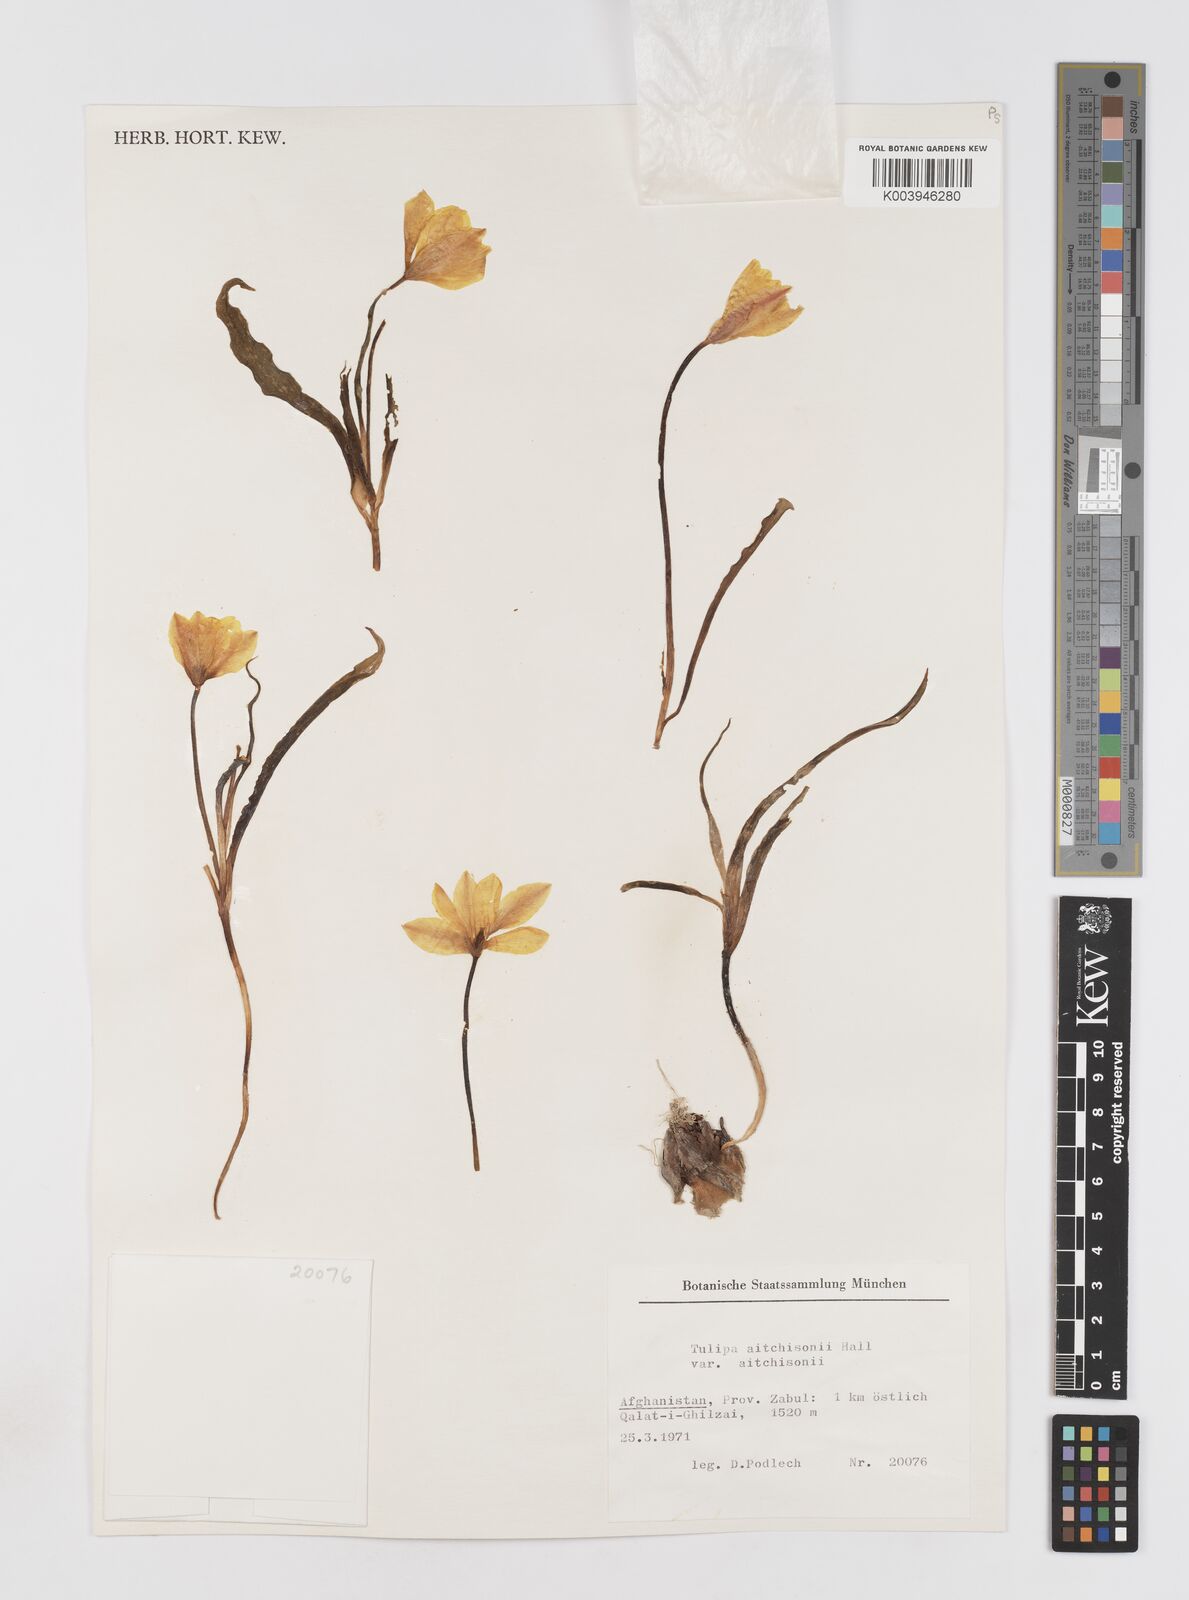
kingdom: Plantae
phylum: Tracheophyta
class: Liliopsida
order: Liliales
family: Liliaceae
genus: Tulipa
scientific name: Tulipa clusiana
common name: Lady tulip
